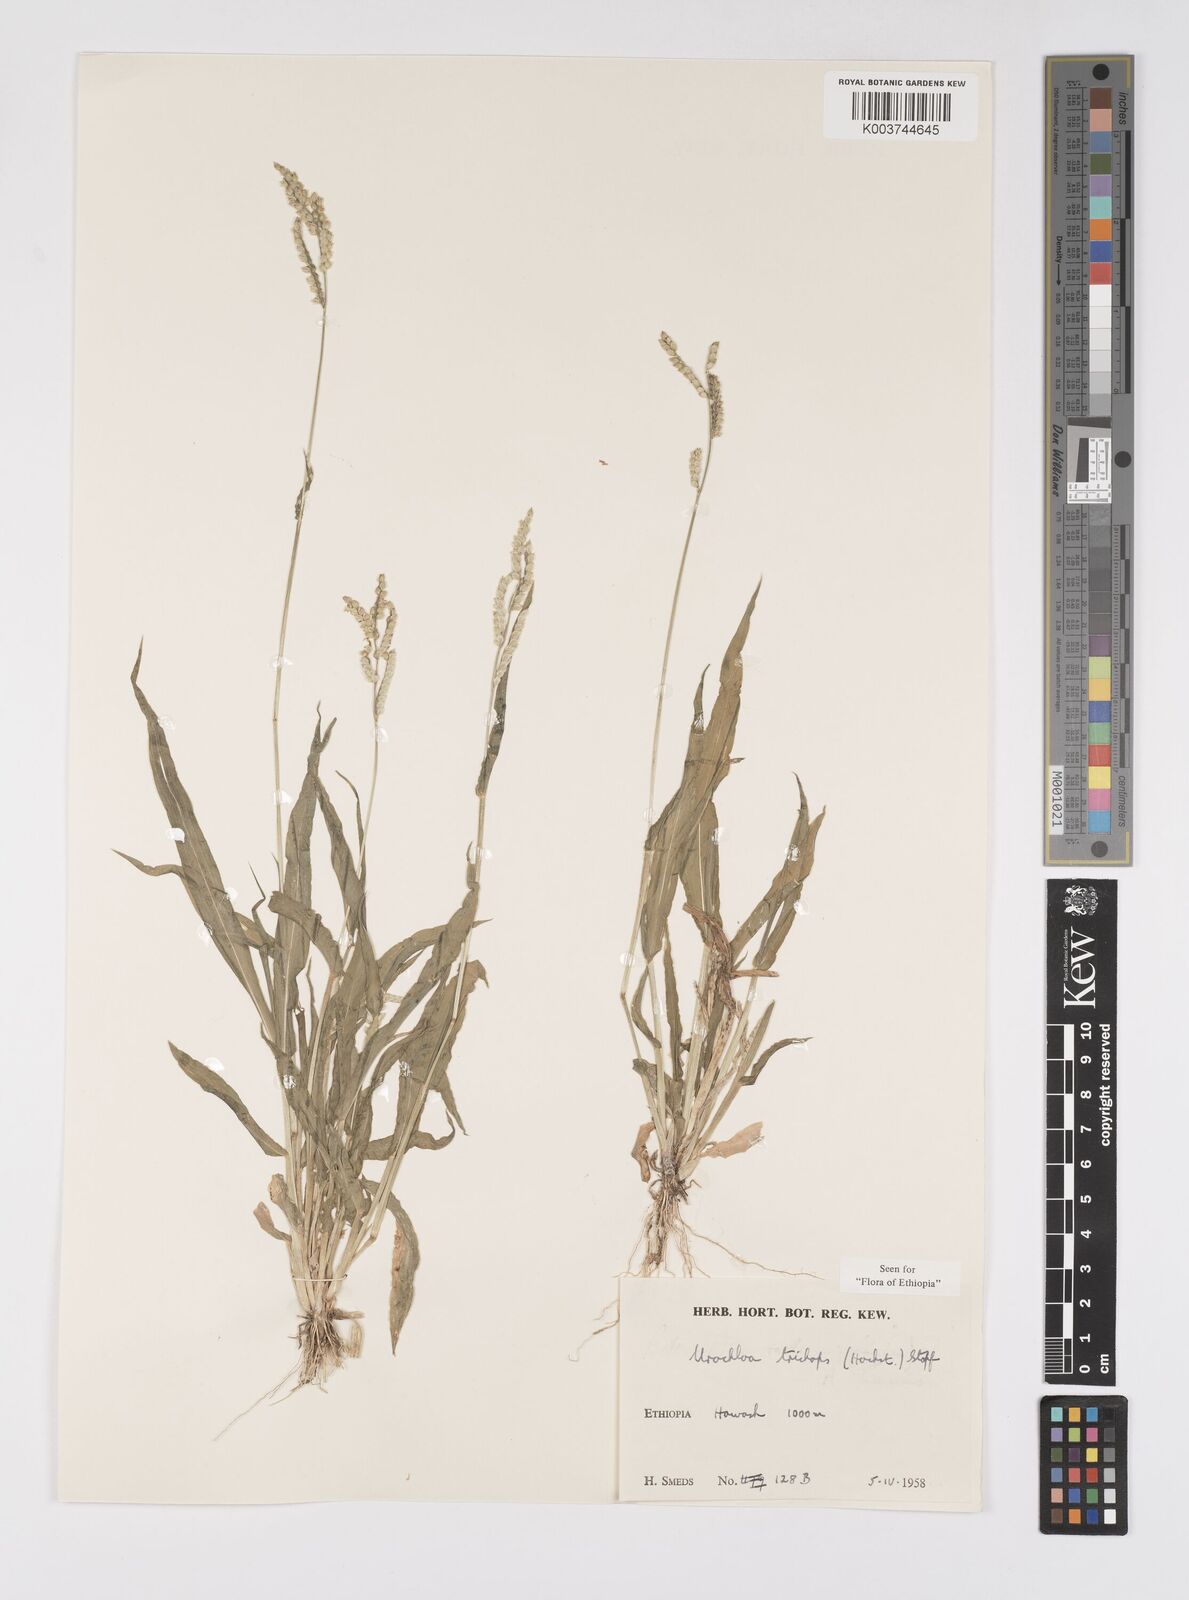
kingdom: Plantae
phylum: Tracheophyta
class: Liliopsida
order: Poales
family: Poaceae
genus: Urochloa
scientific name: Urochloa trichopus
